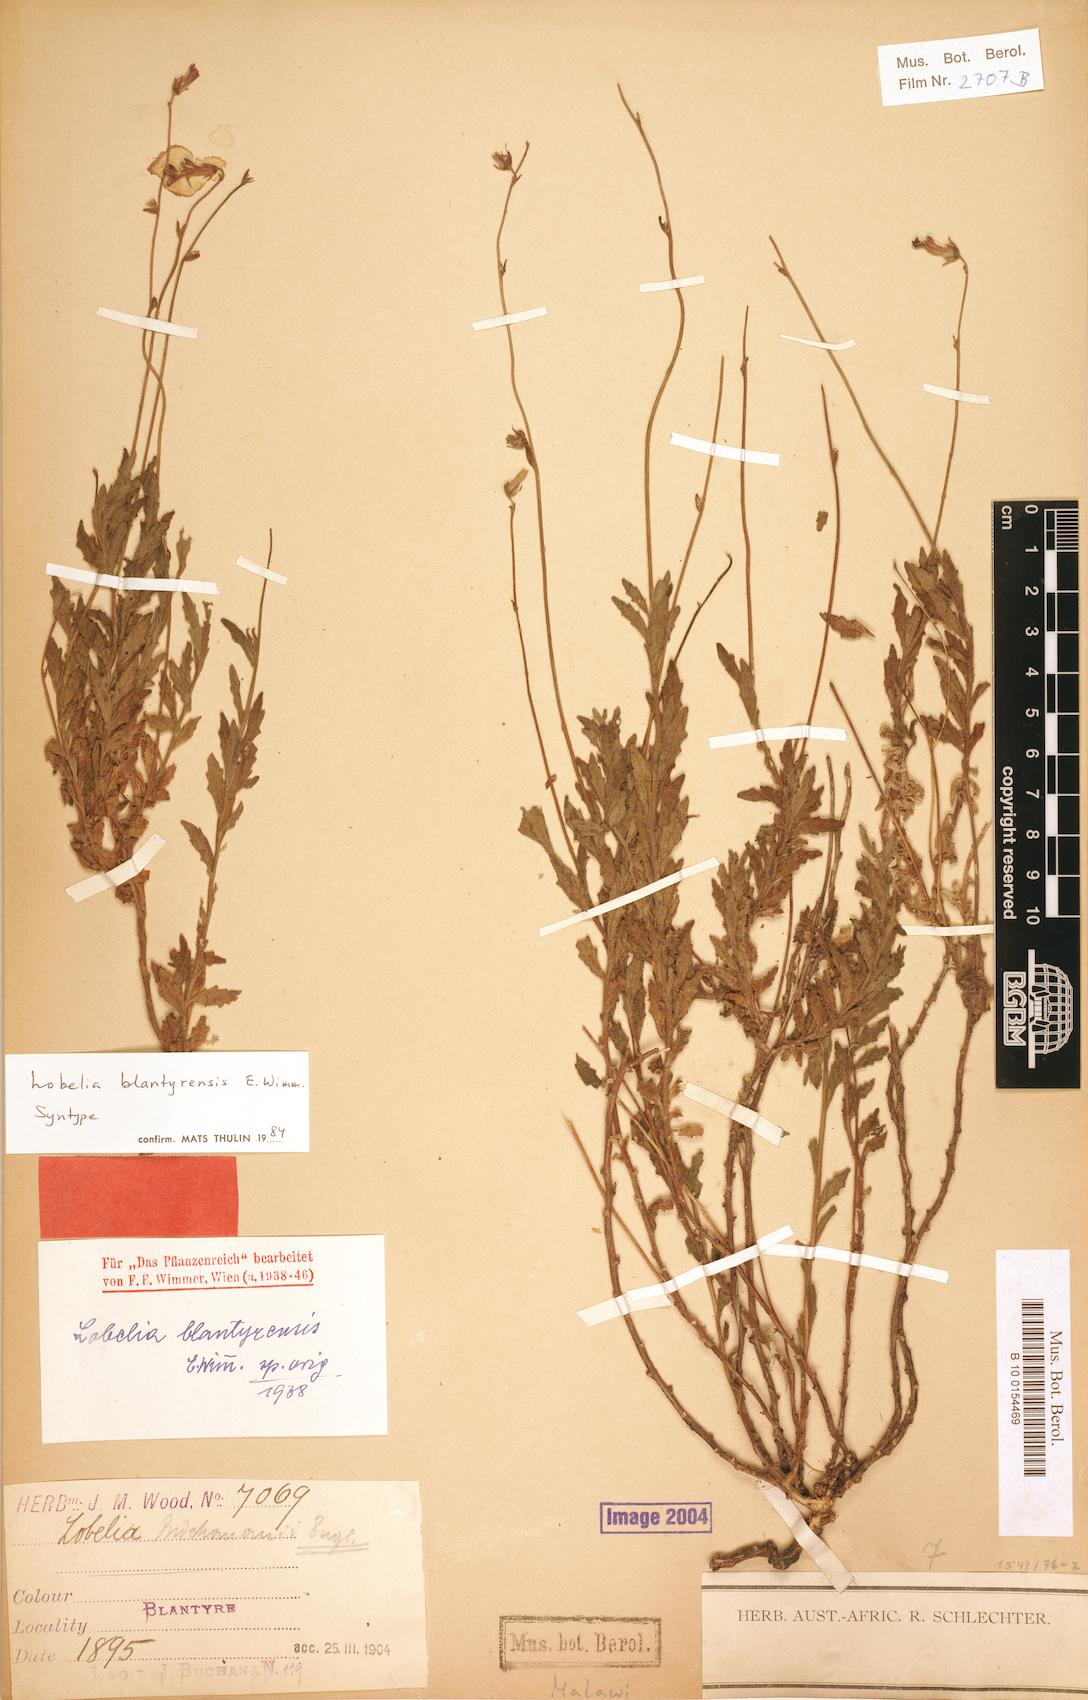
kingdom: Plantae
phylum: Tracheophyta
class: Magnoliopsida
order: Asterales
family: Campanulaceae
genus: Lobelia
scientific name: Lobelia blantyrensis
